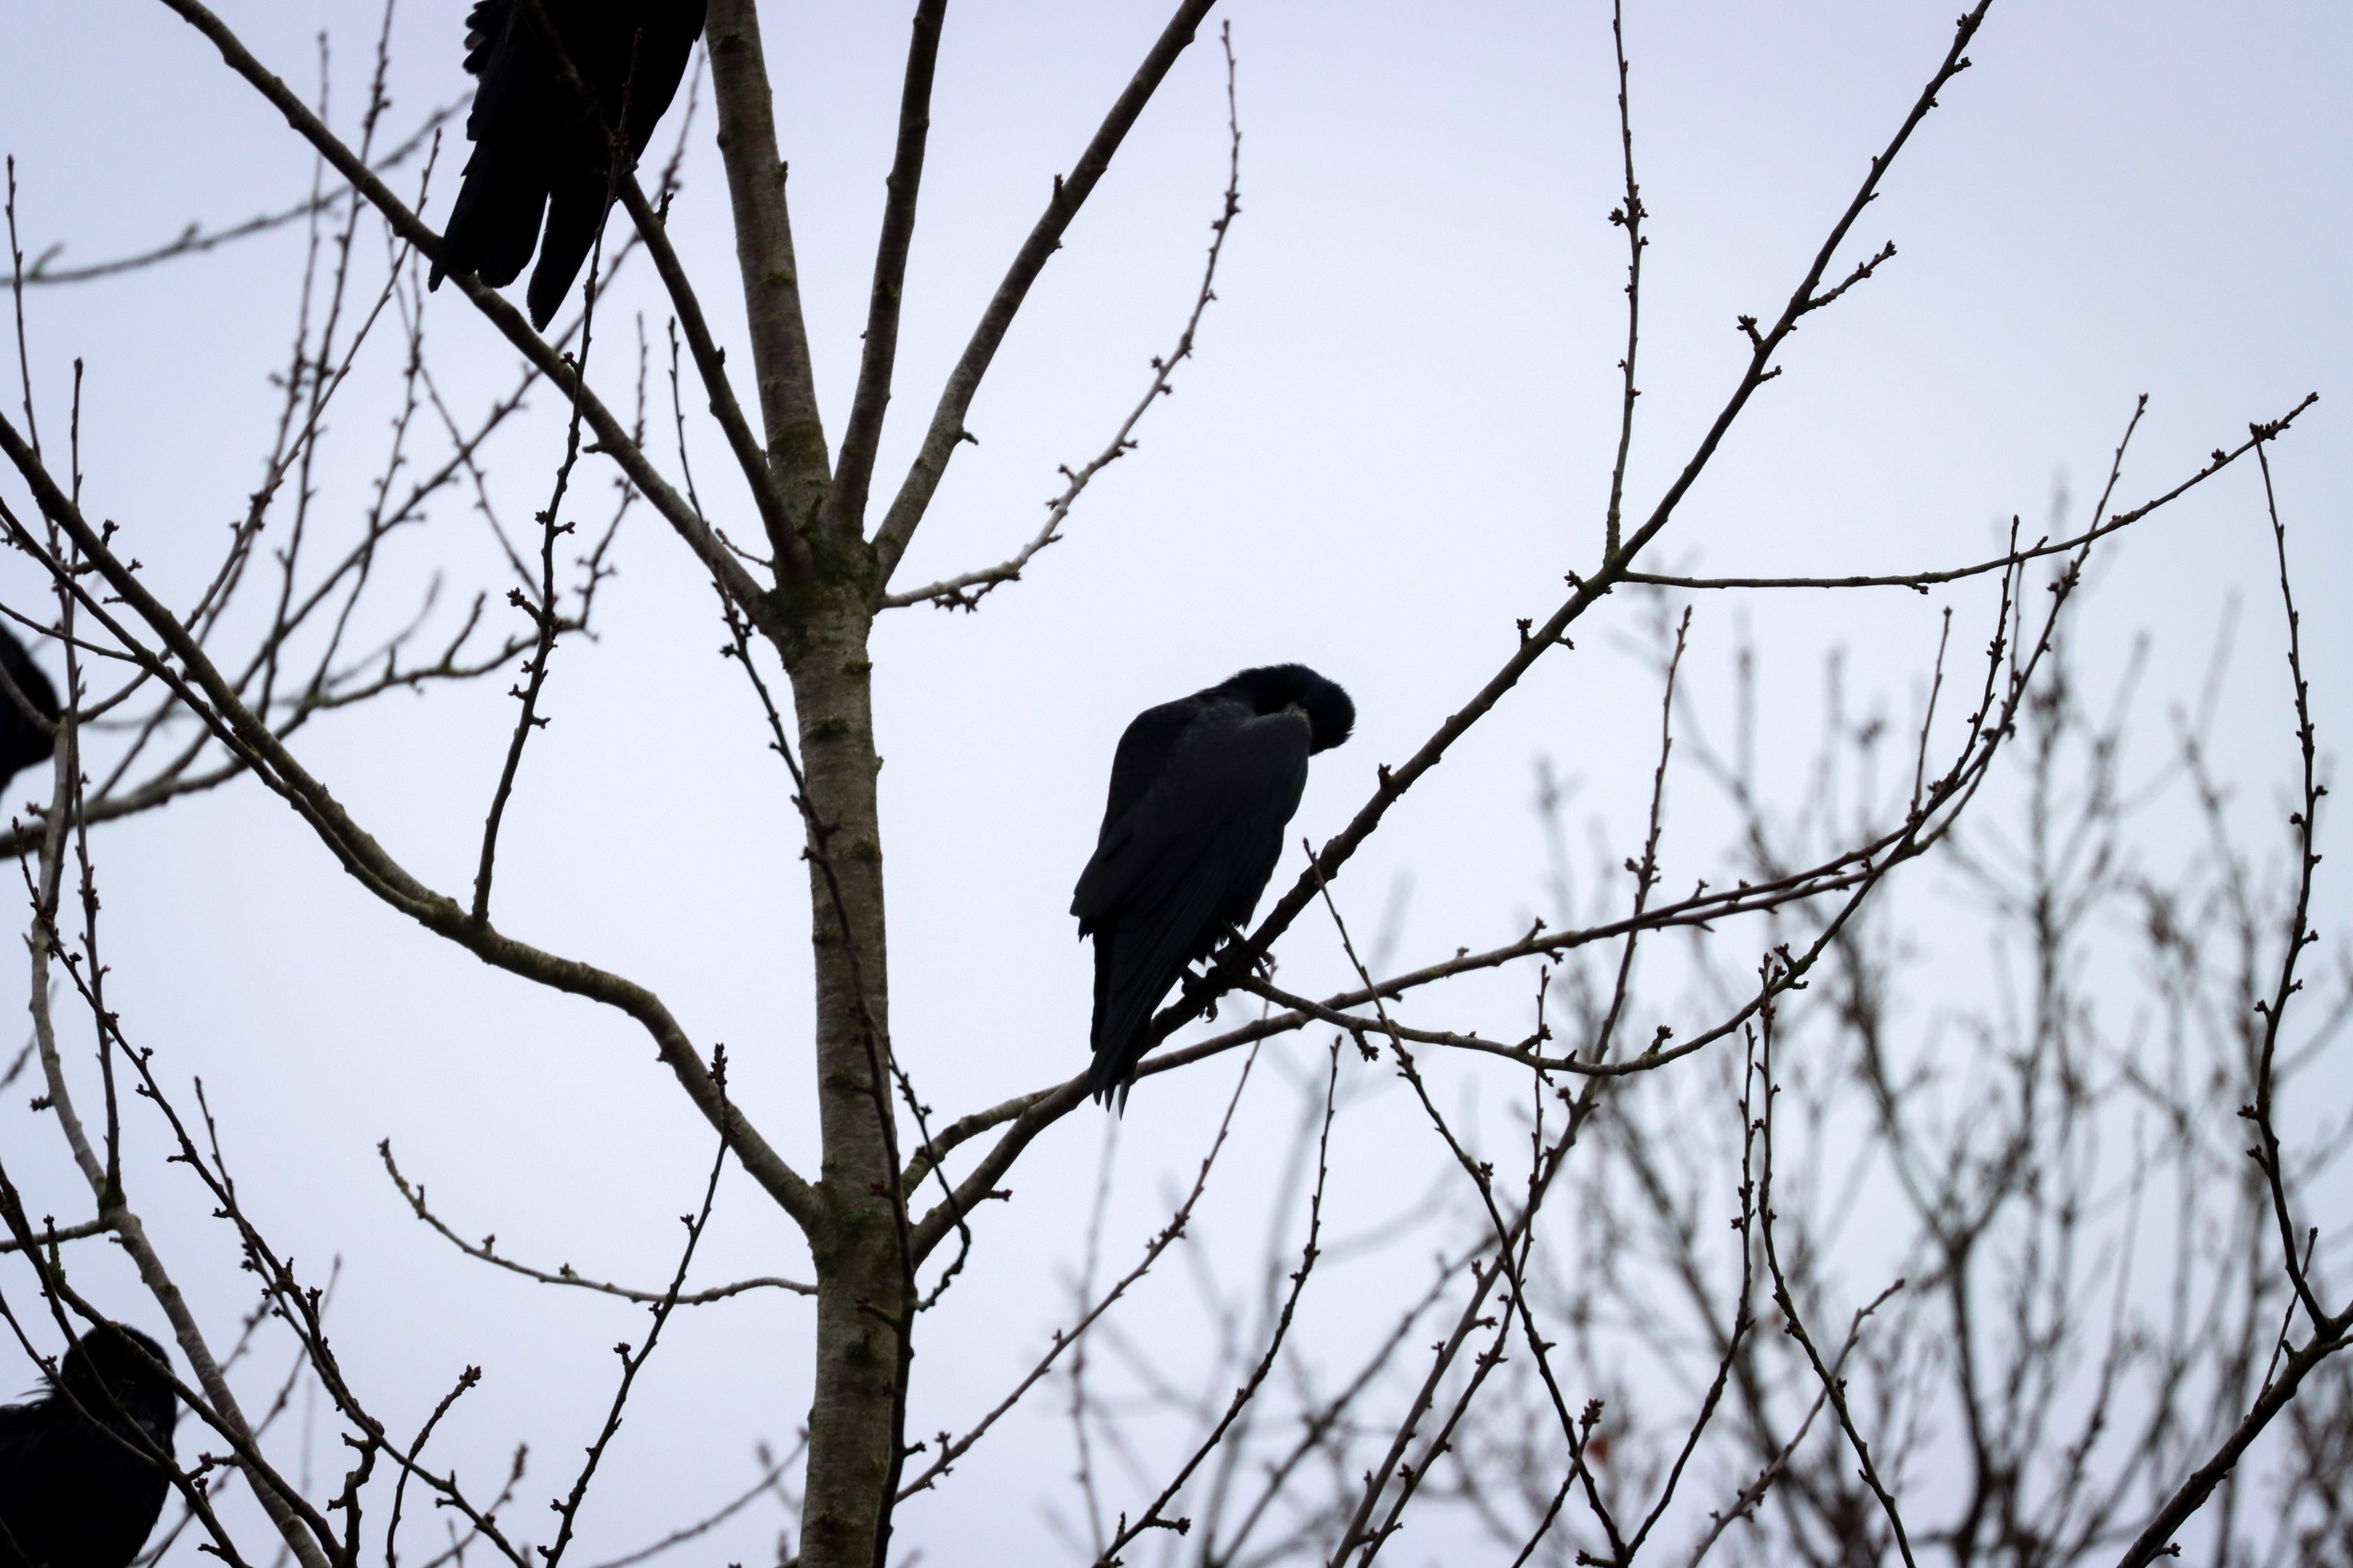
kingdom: Animalia
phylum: Chordata
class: Aves
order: Passeriformes
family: Corvidae
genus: Corvus
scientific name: Corvus frugilegus
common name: Råge
